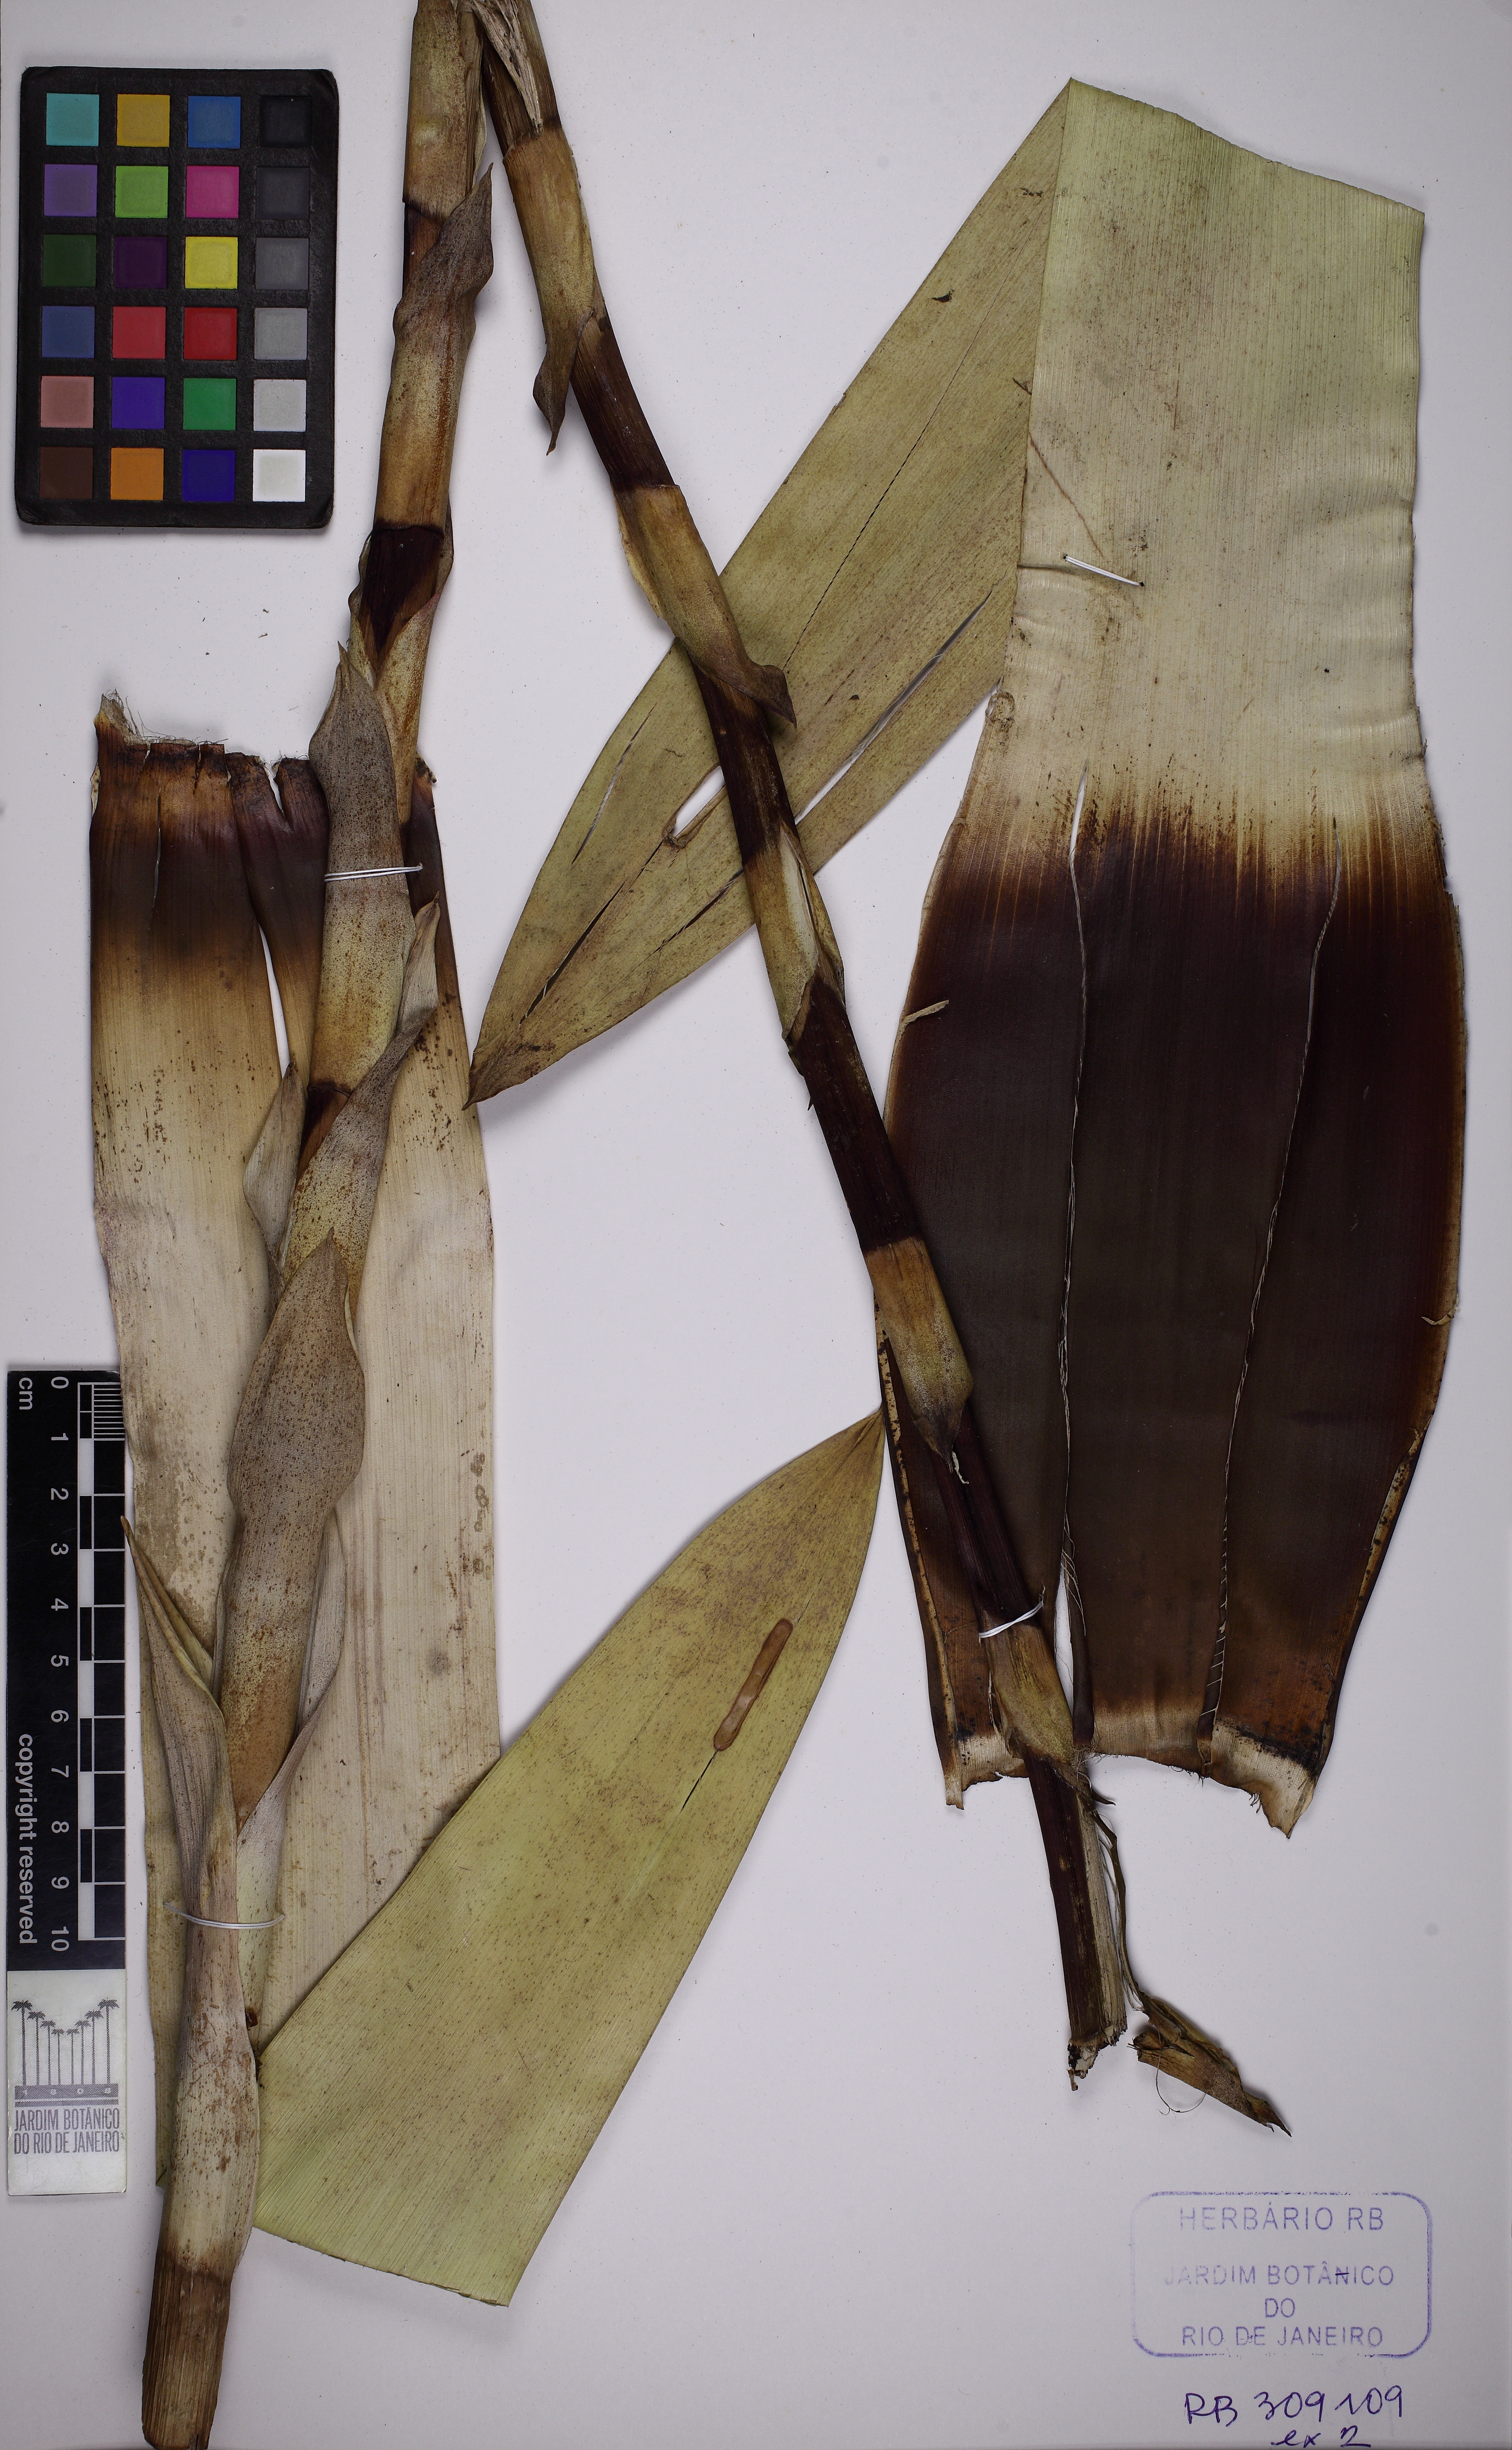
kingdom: Plantae
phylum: Tracheophyta
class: Liliopsida
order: Poales
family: Bromeliaceae
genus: Vriesea
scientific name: Vriesea crassa
